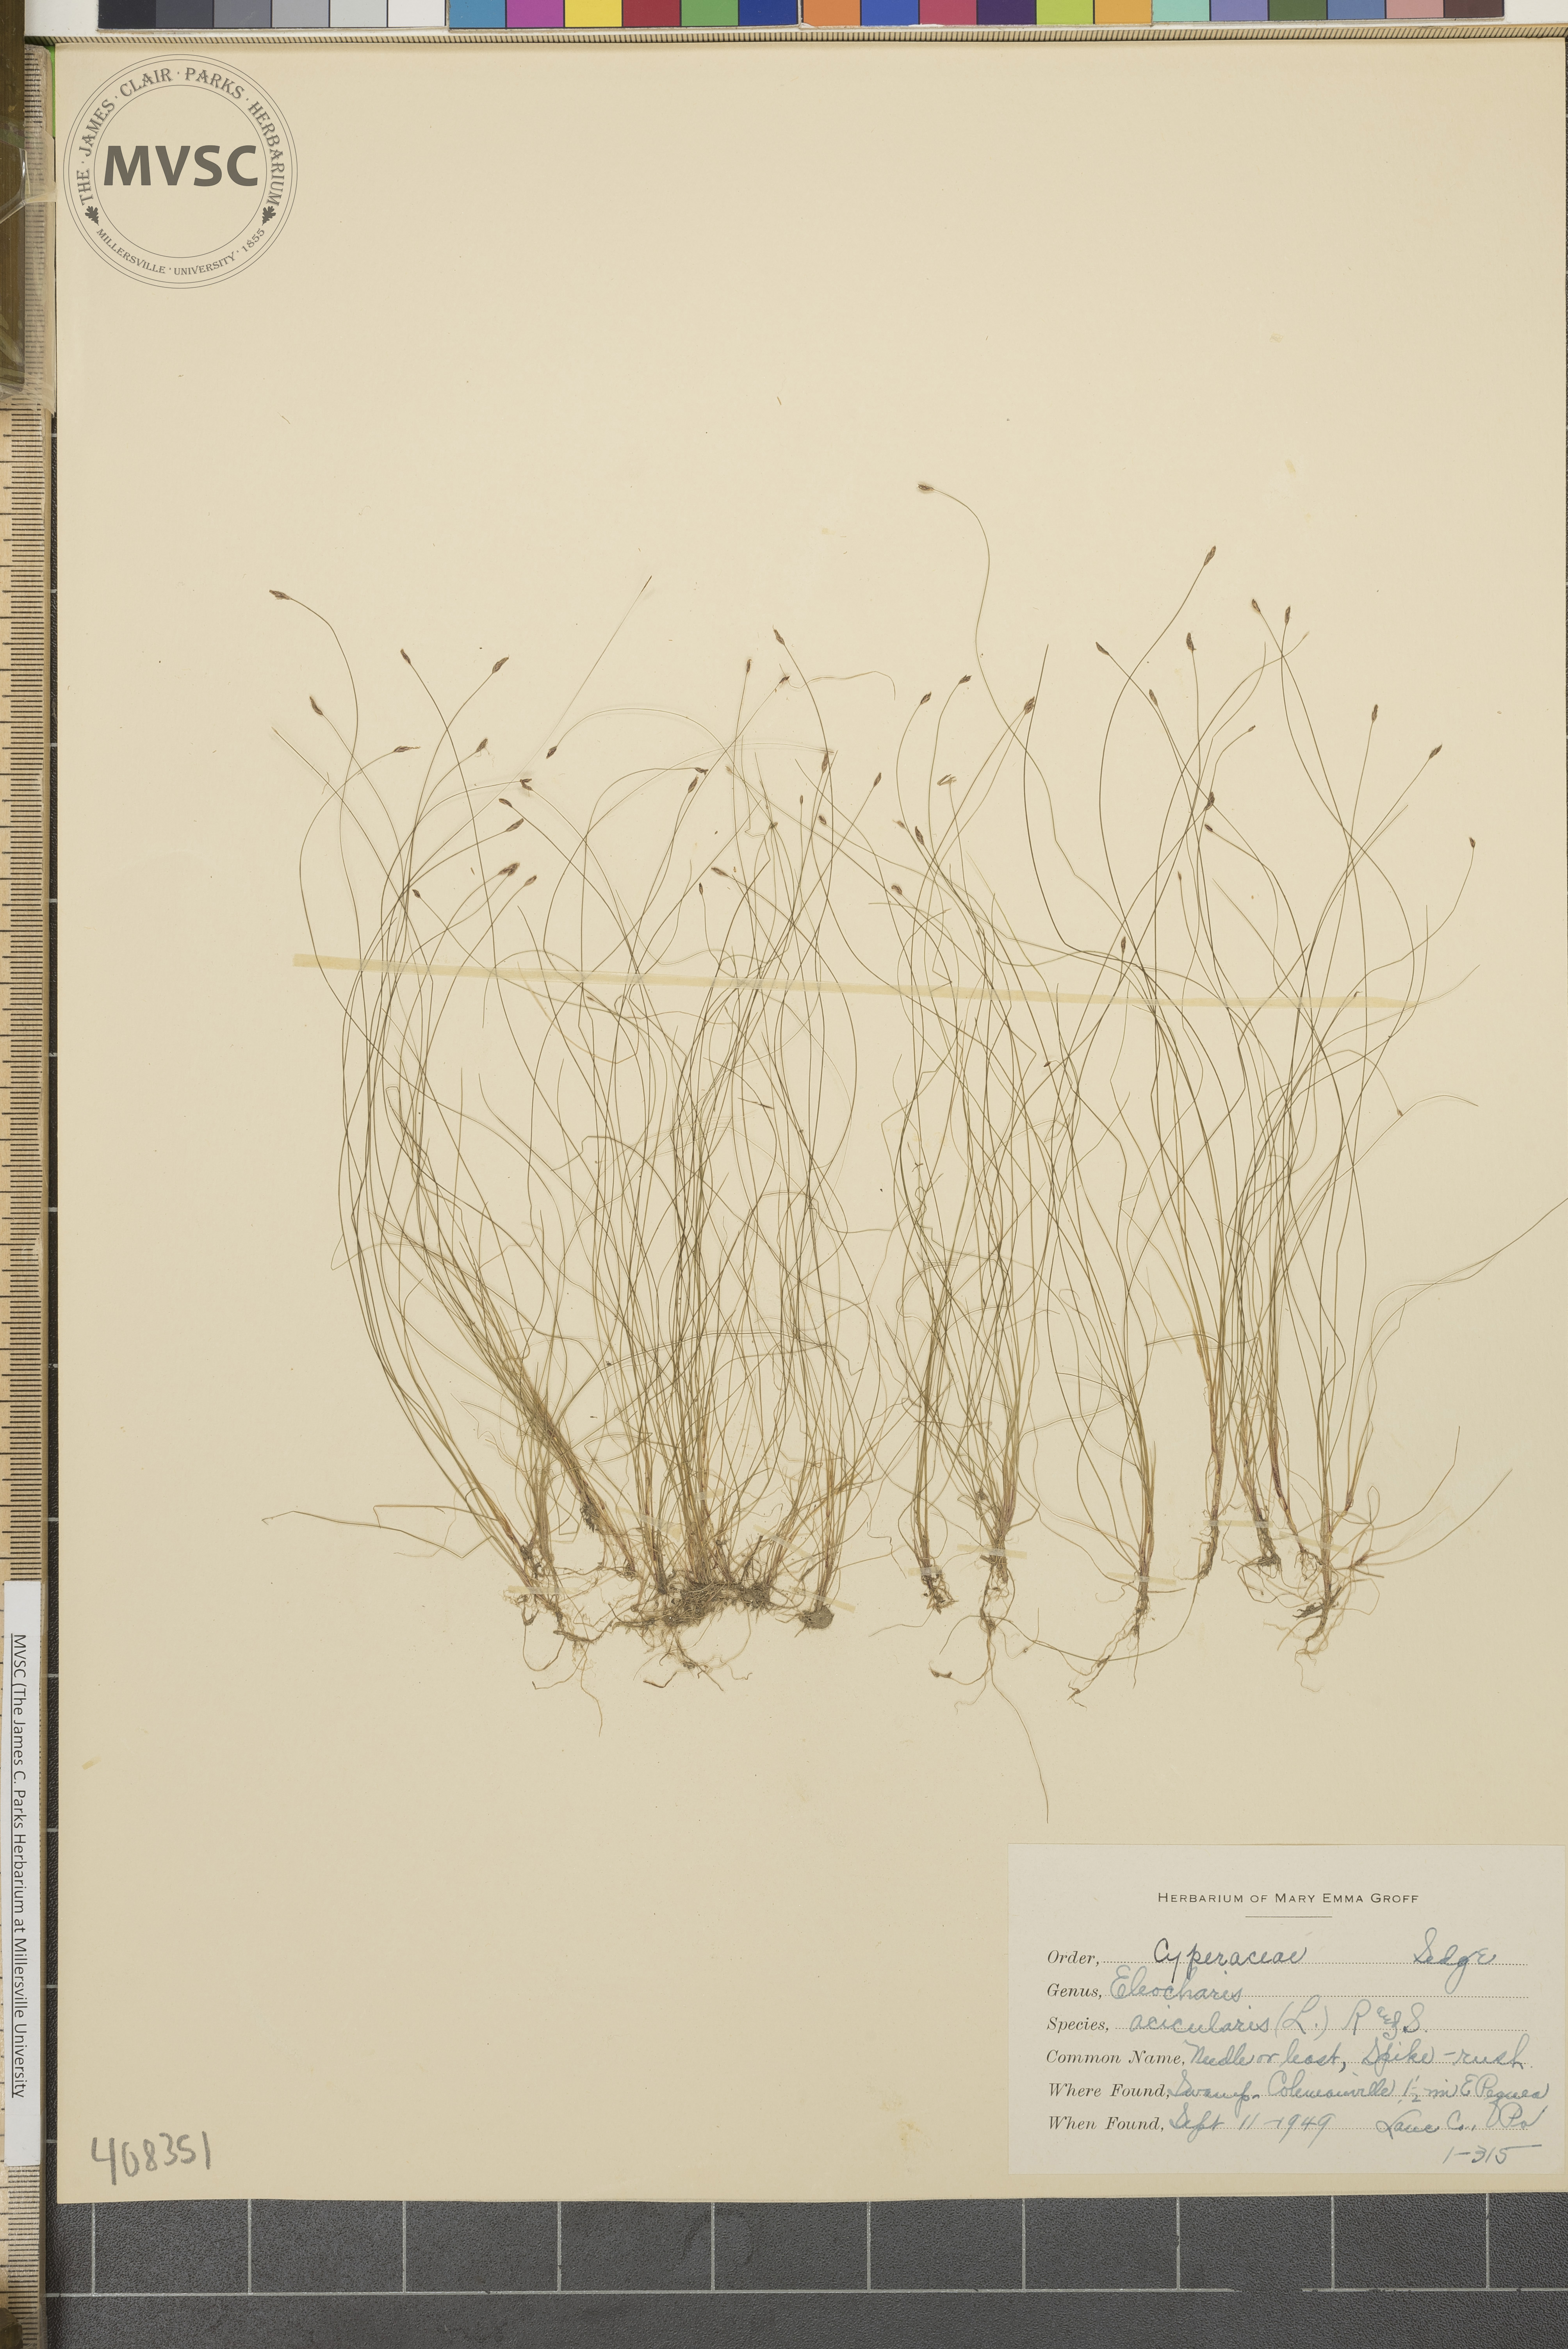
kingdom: Plantae
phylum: Tracheophyta
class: Liliopsida
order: Poales
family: Cyperaceae
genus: Eleocharis
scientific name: Eleocharis acicularis
